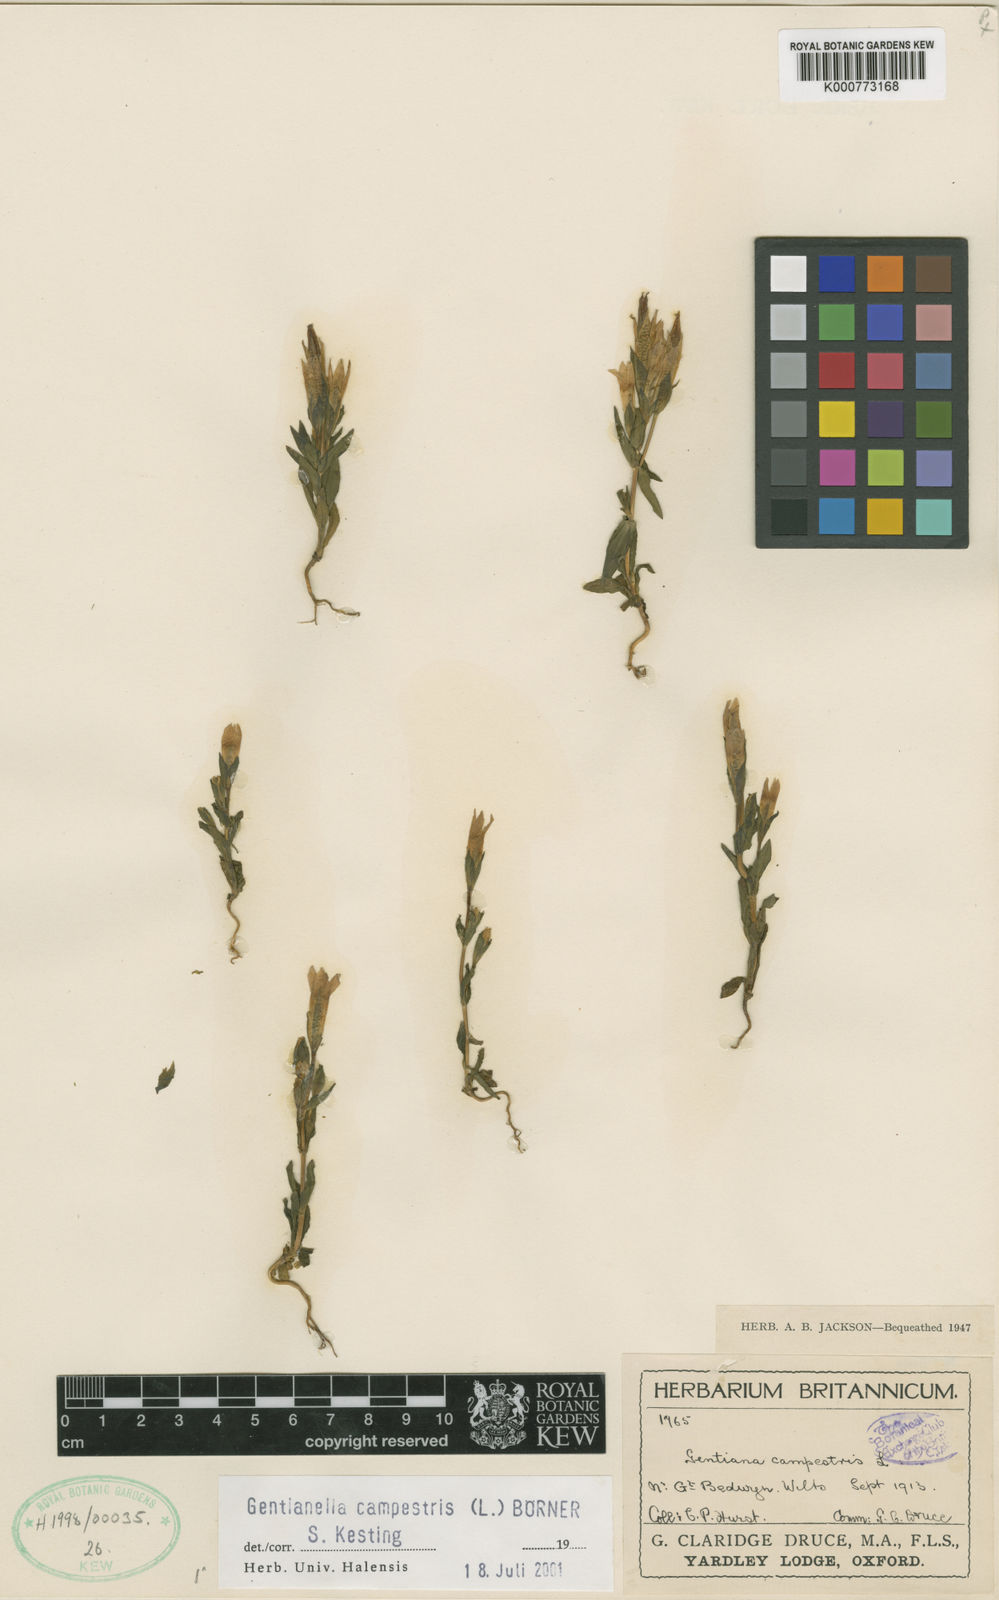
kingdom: Plantae
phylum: Tracheophyta
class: Magnoliopsida
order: Gentianales
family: Gentianaceae
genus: Gentianella
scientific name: Gentianella
